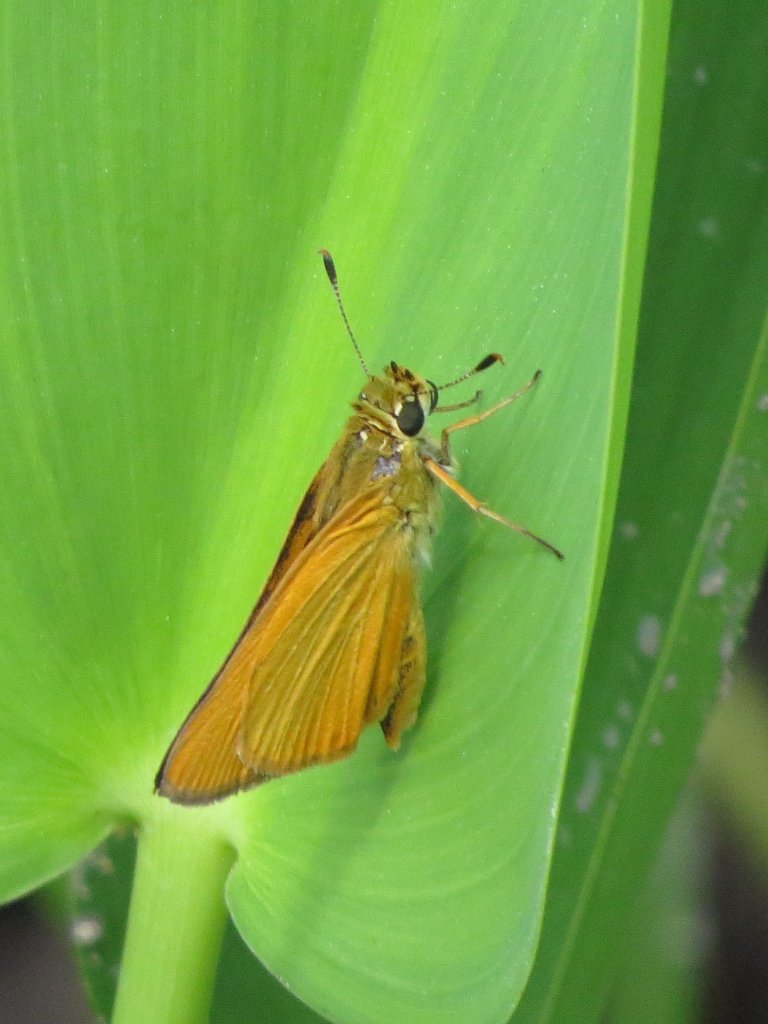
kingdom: Animalia
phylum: Arthropoda
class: Insecta
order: Lepidoptera
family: Hesperiidae
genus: Problema
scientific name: Problema bulenta
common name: Rare Skipper
